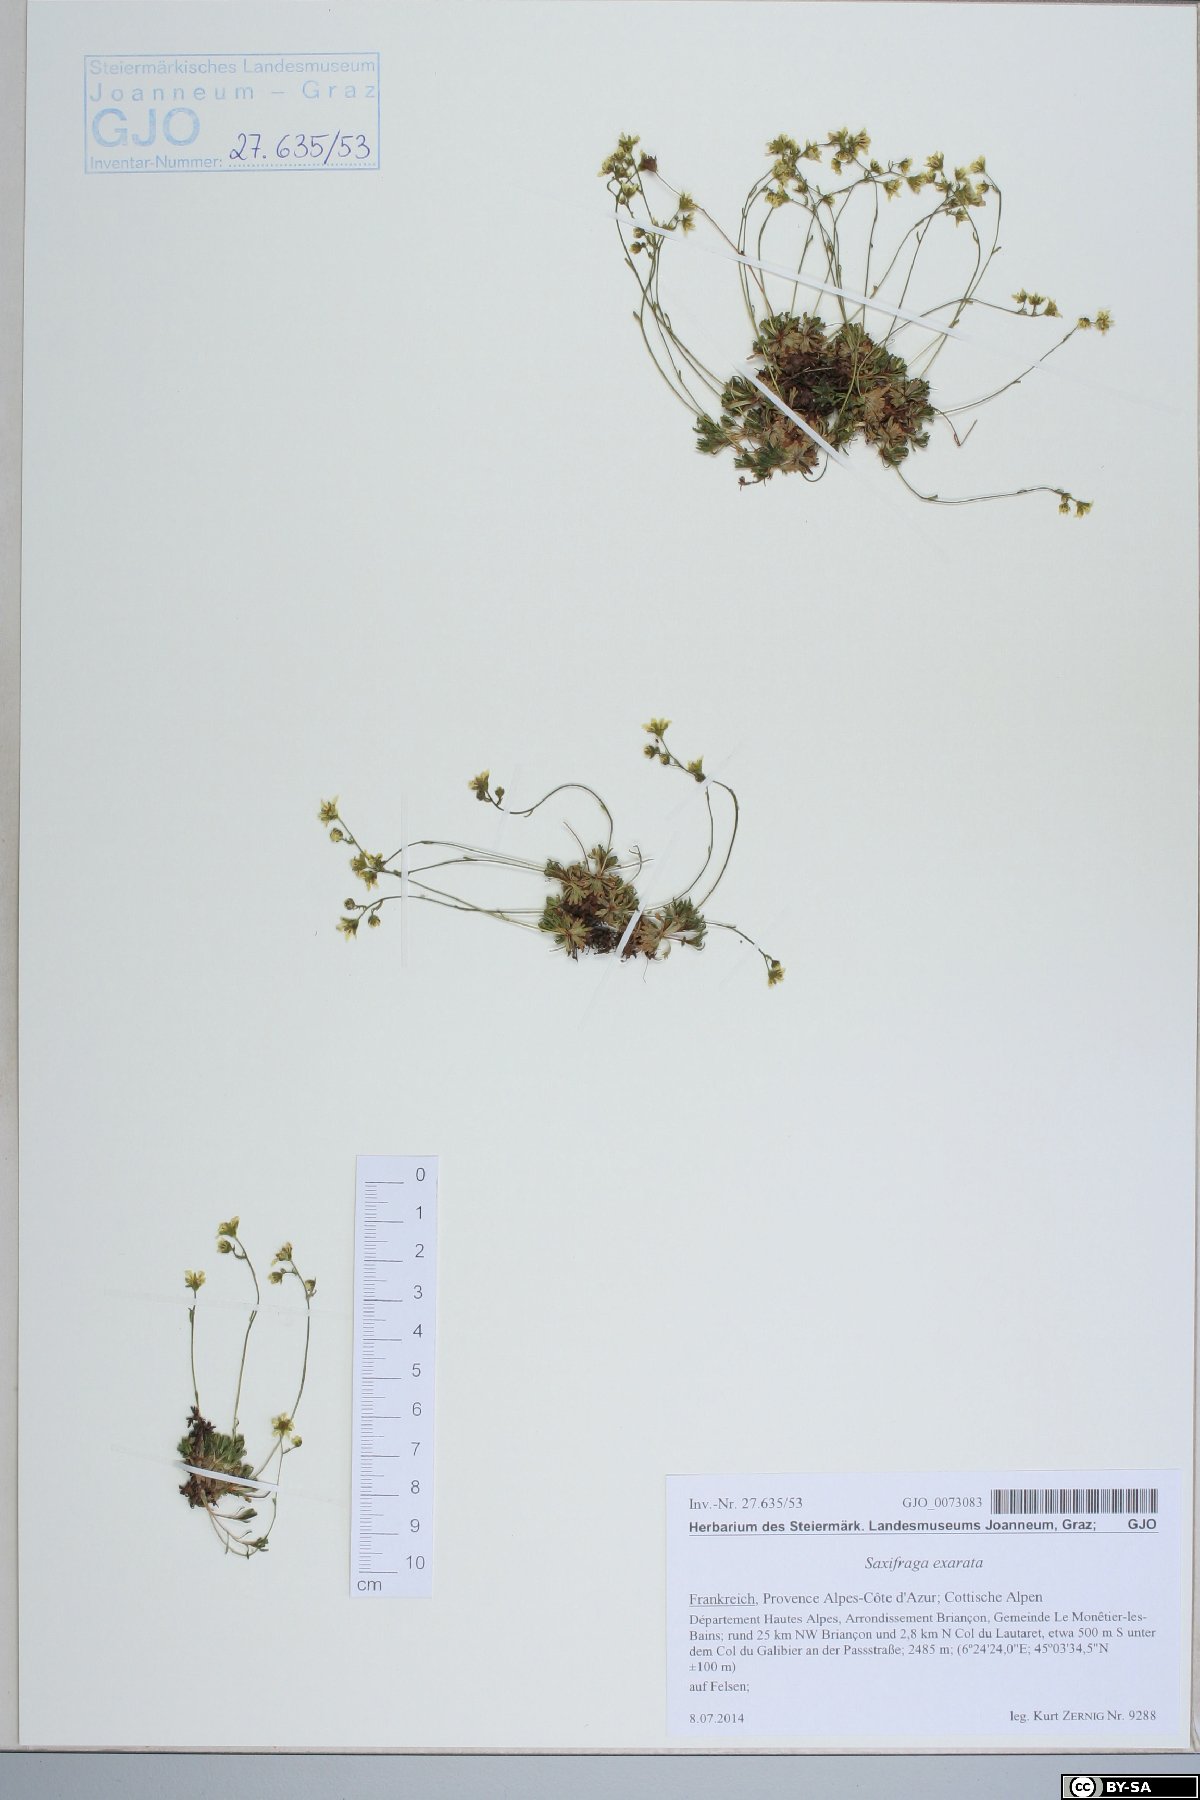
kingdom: Plantae
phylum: Tracheophyta
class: Magnoliopsida
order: Saxifragales
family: Saxifragaceae
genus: Saxifraga
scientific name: Saxifraga exarata
